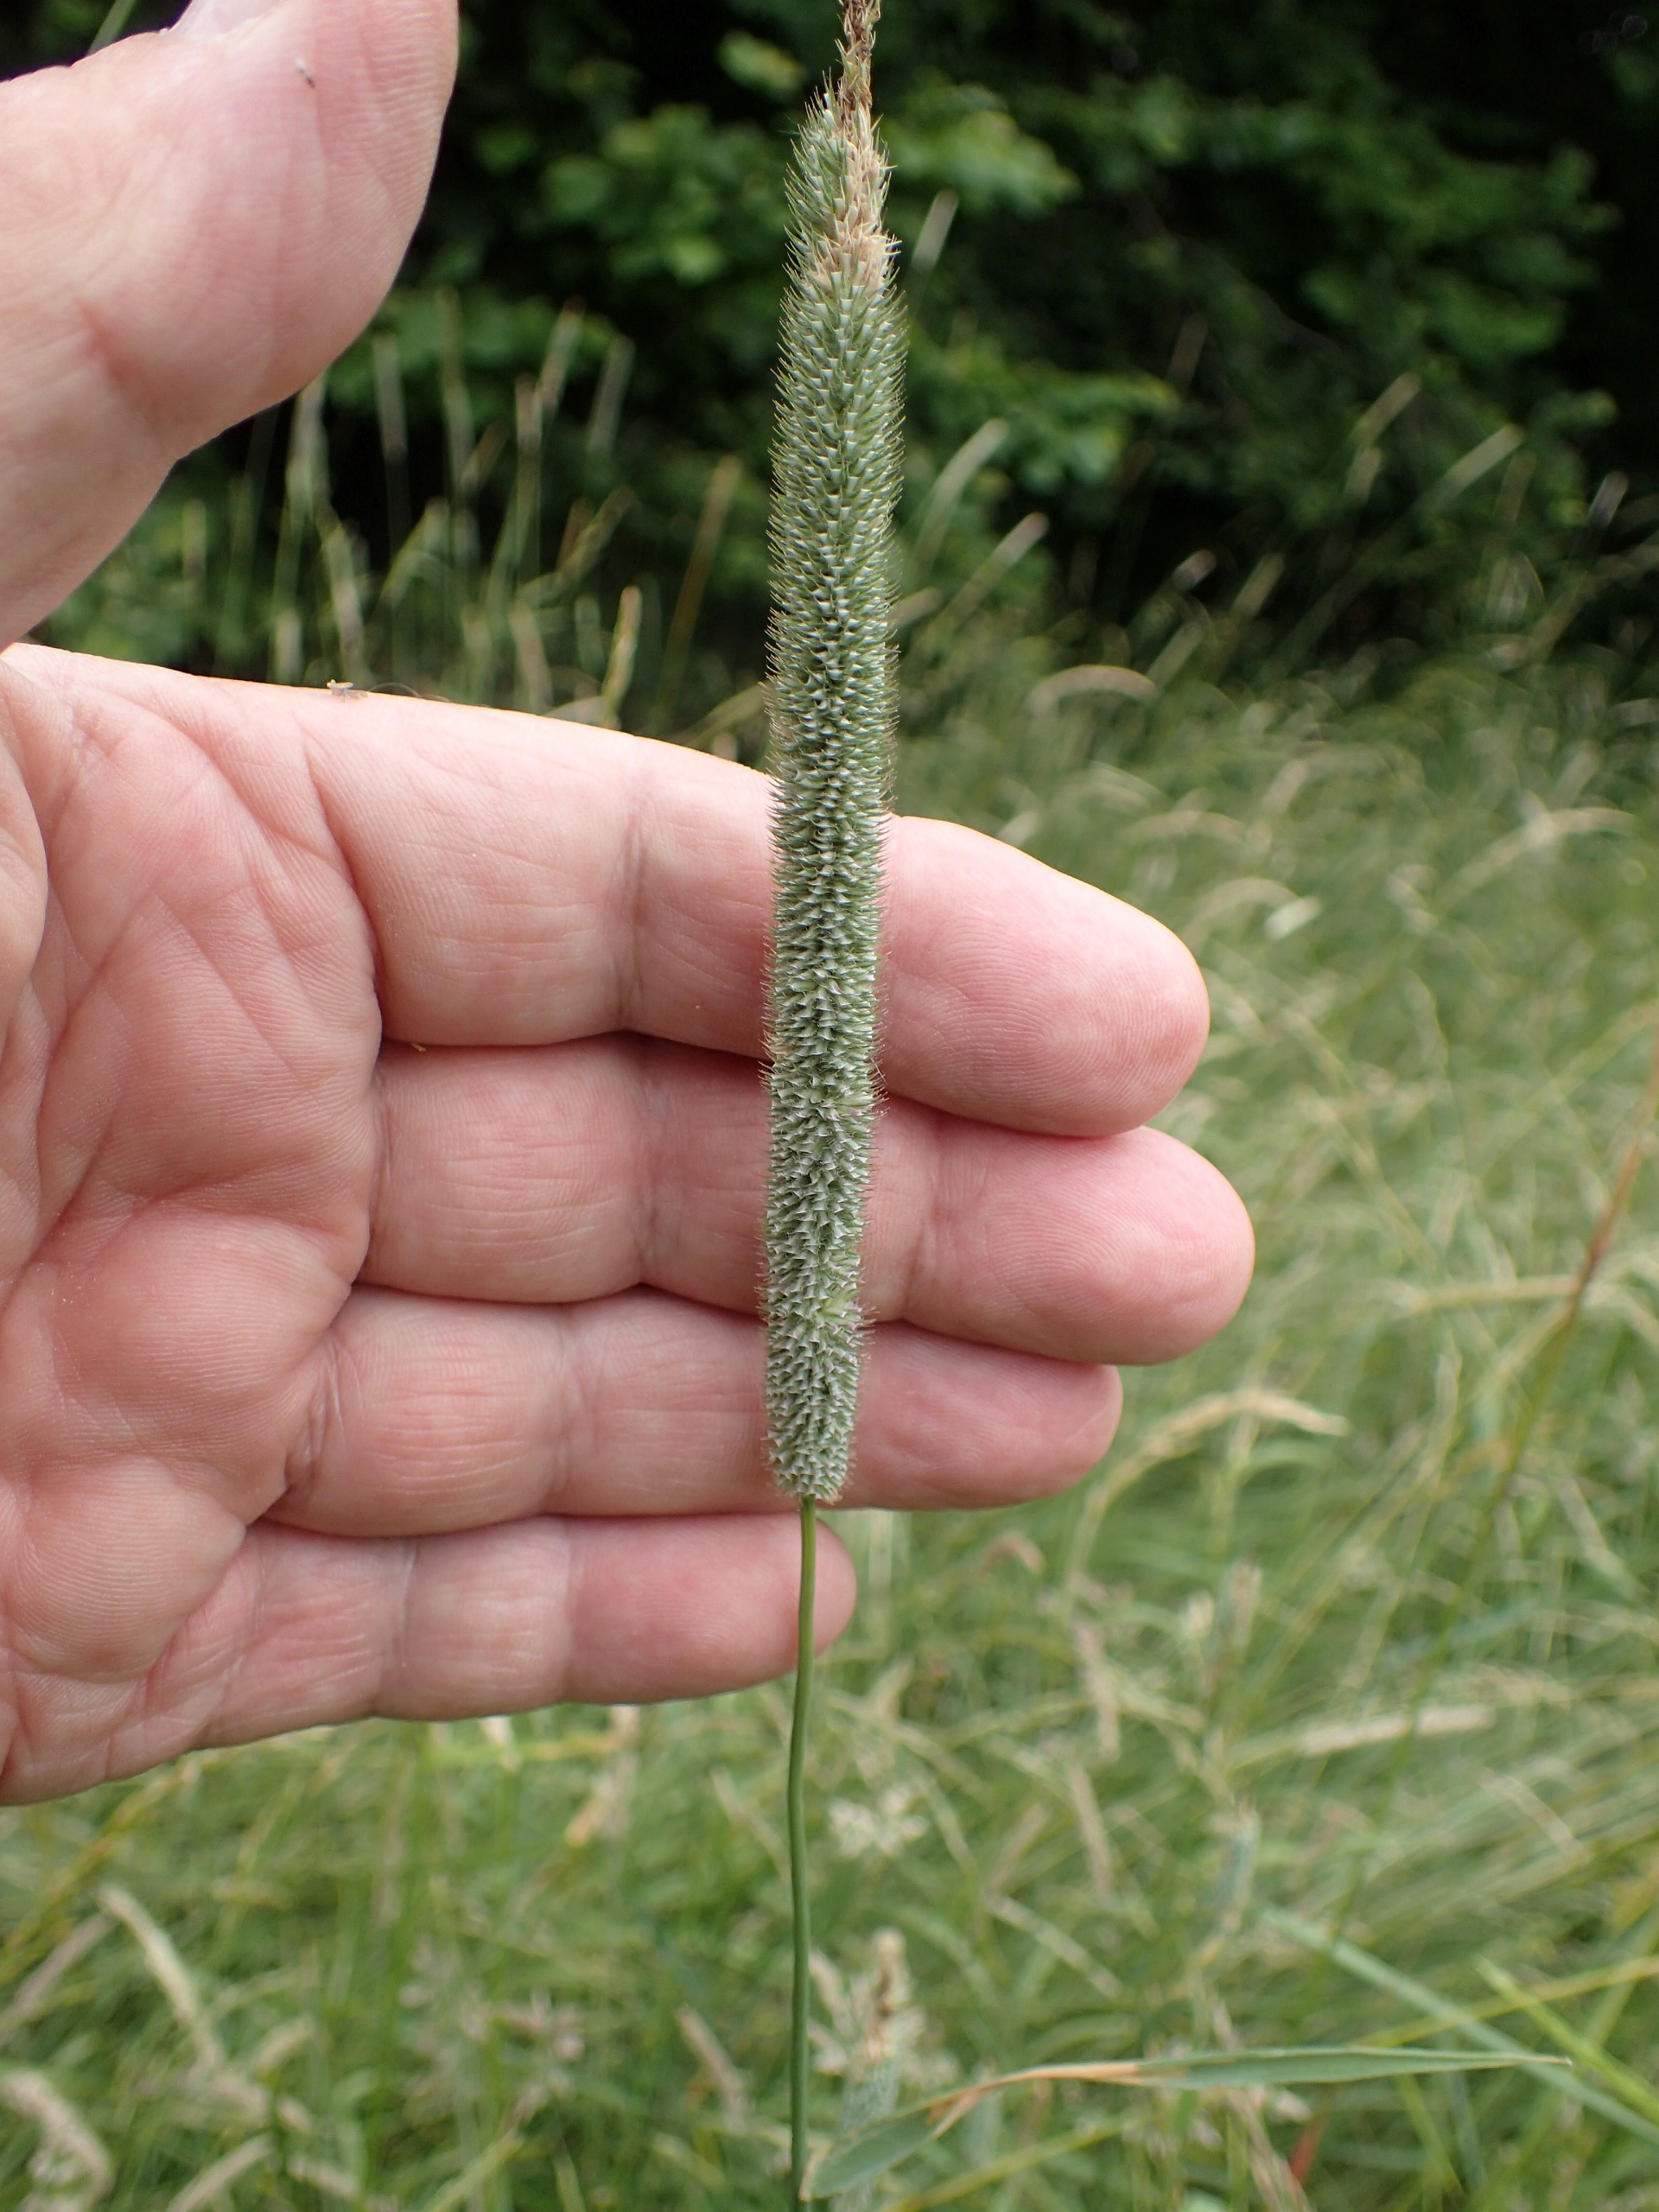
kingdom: Plantae
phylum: Tracheophyta
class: Liliopsida
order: Poales
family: Poaceae
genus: Phleum
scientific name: Phleum pratense
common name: Eng-rottehale
